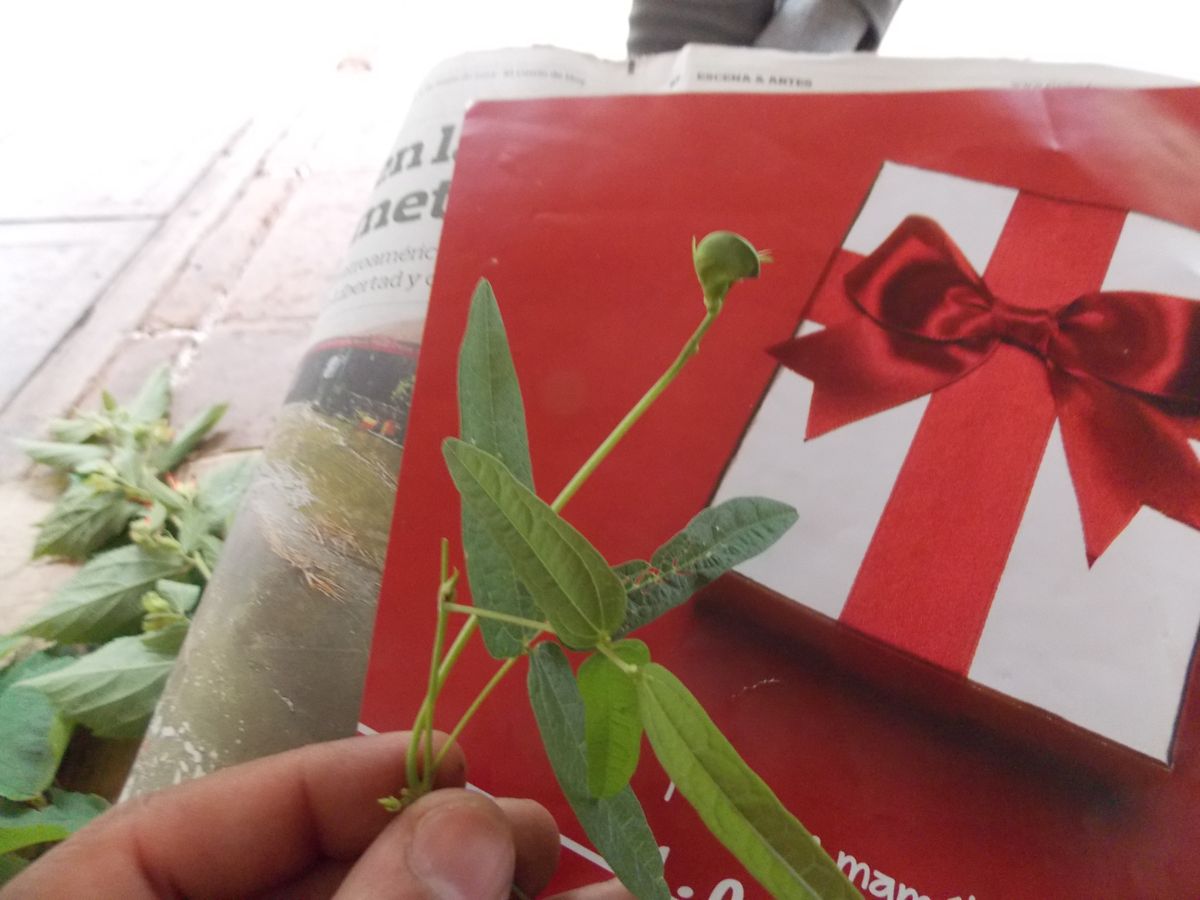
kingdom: Plantae
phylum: Tracheophyta
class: Magnoliopsida
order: Malvales
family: Malvaceae
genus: Helicteres
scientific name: Helicteres guazumifolia
